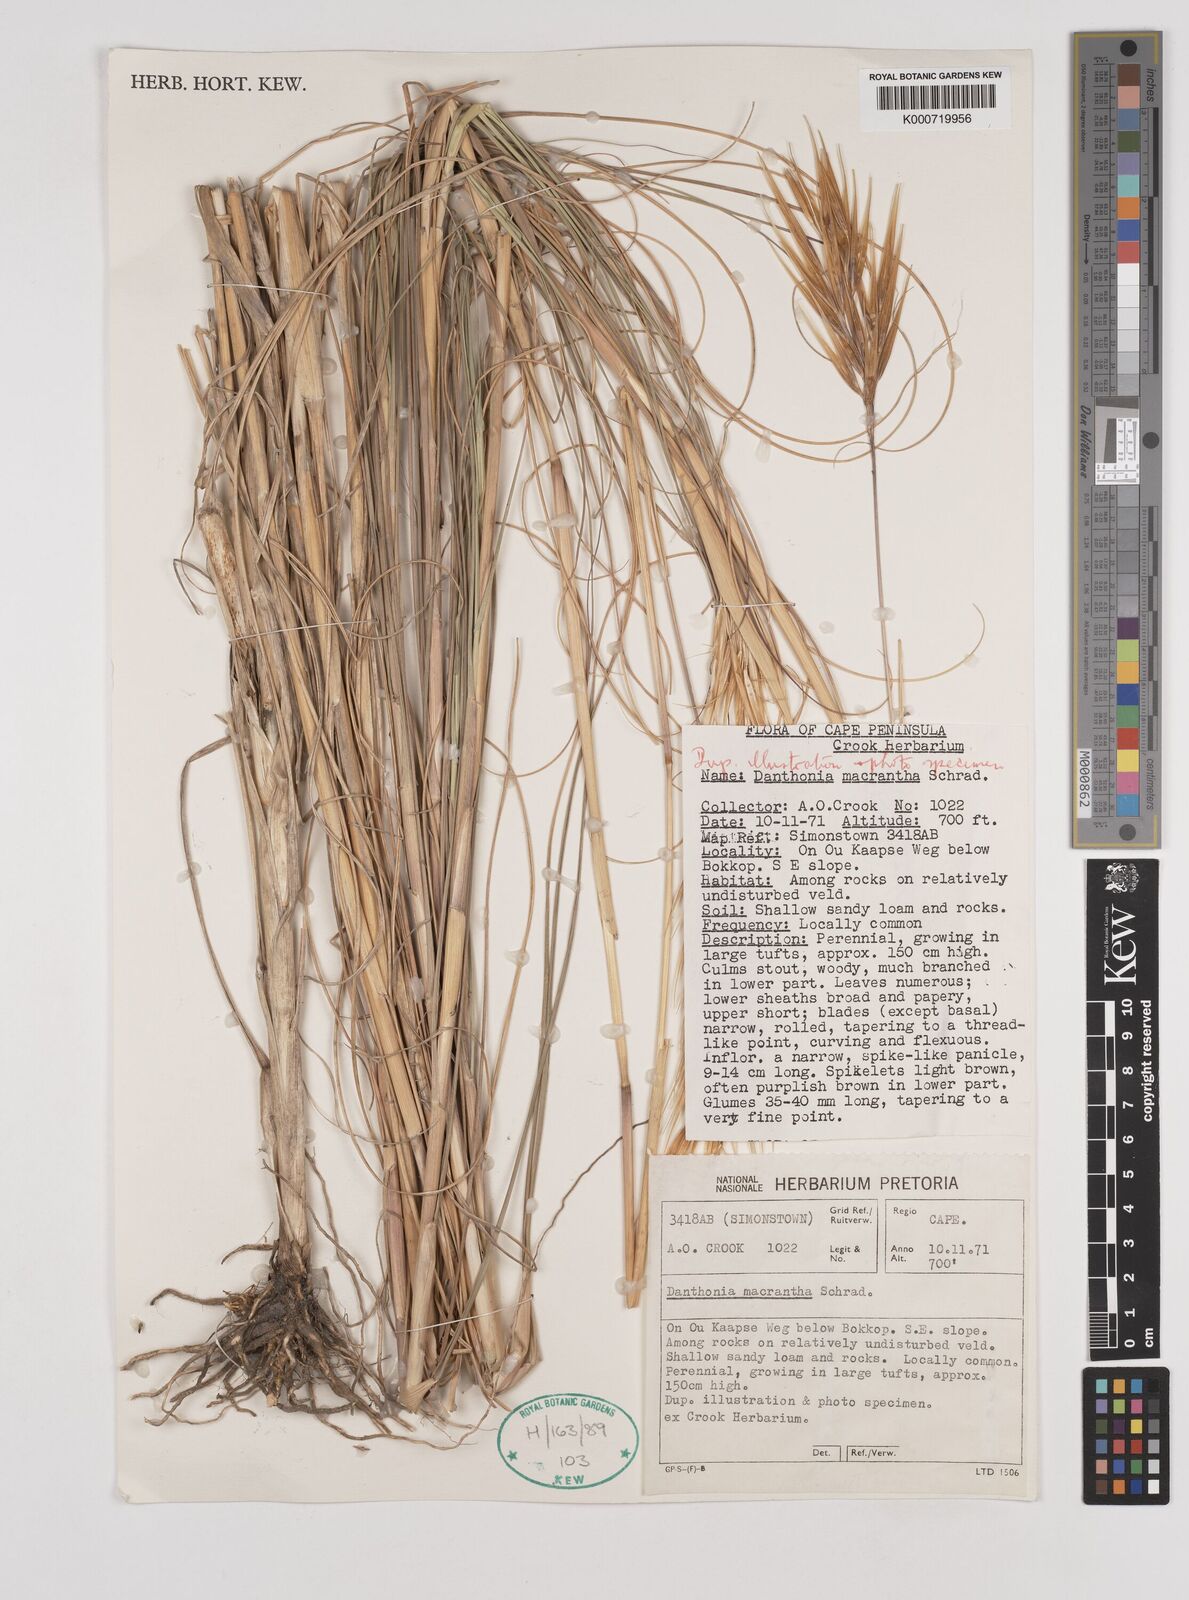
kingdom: Plantae
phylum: Tracheophyta
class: Liliopsida
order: Poales
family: Poaceae
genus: Pseudopentameris
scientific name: Pseudopentameris macrantha
